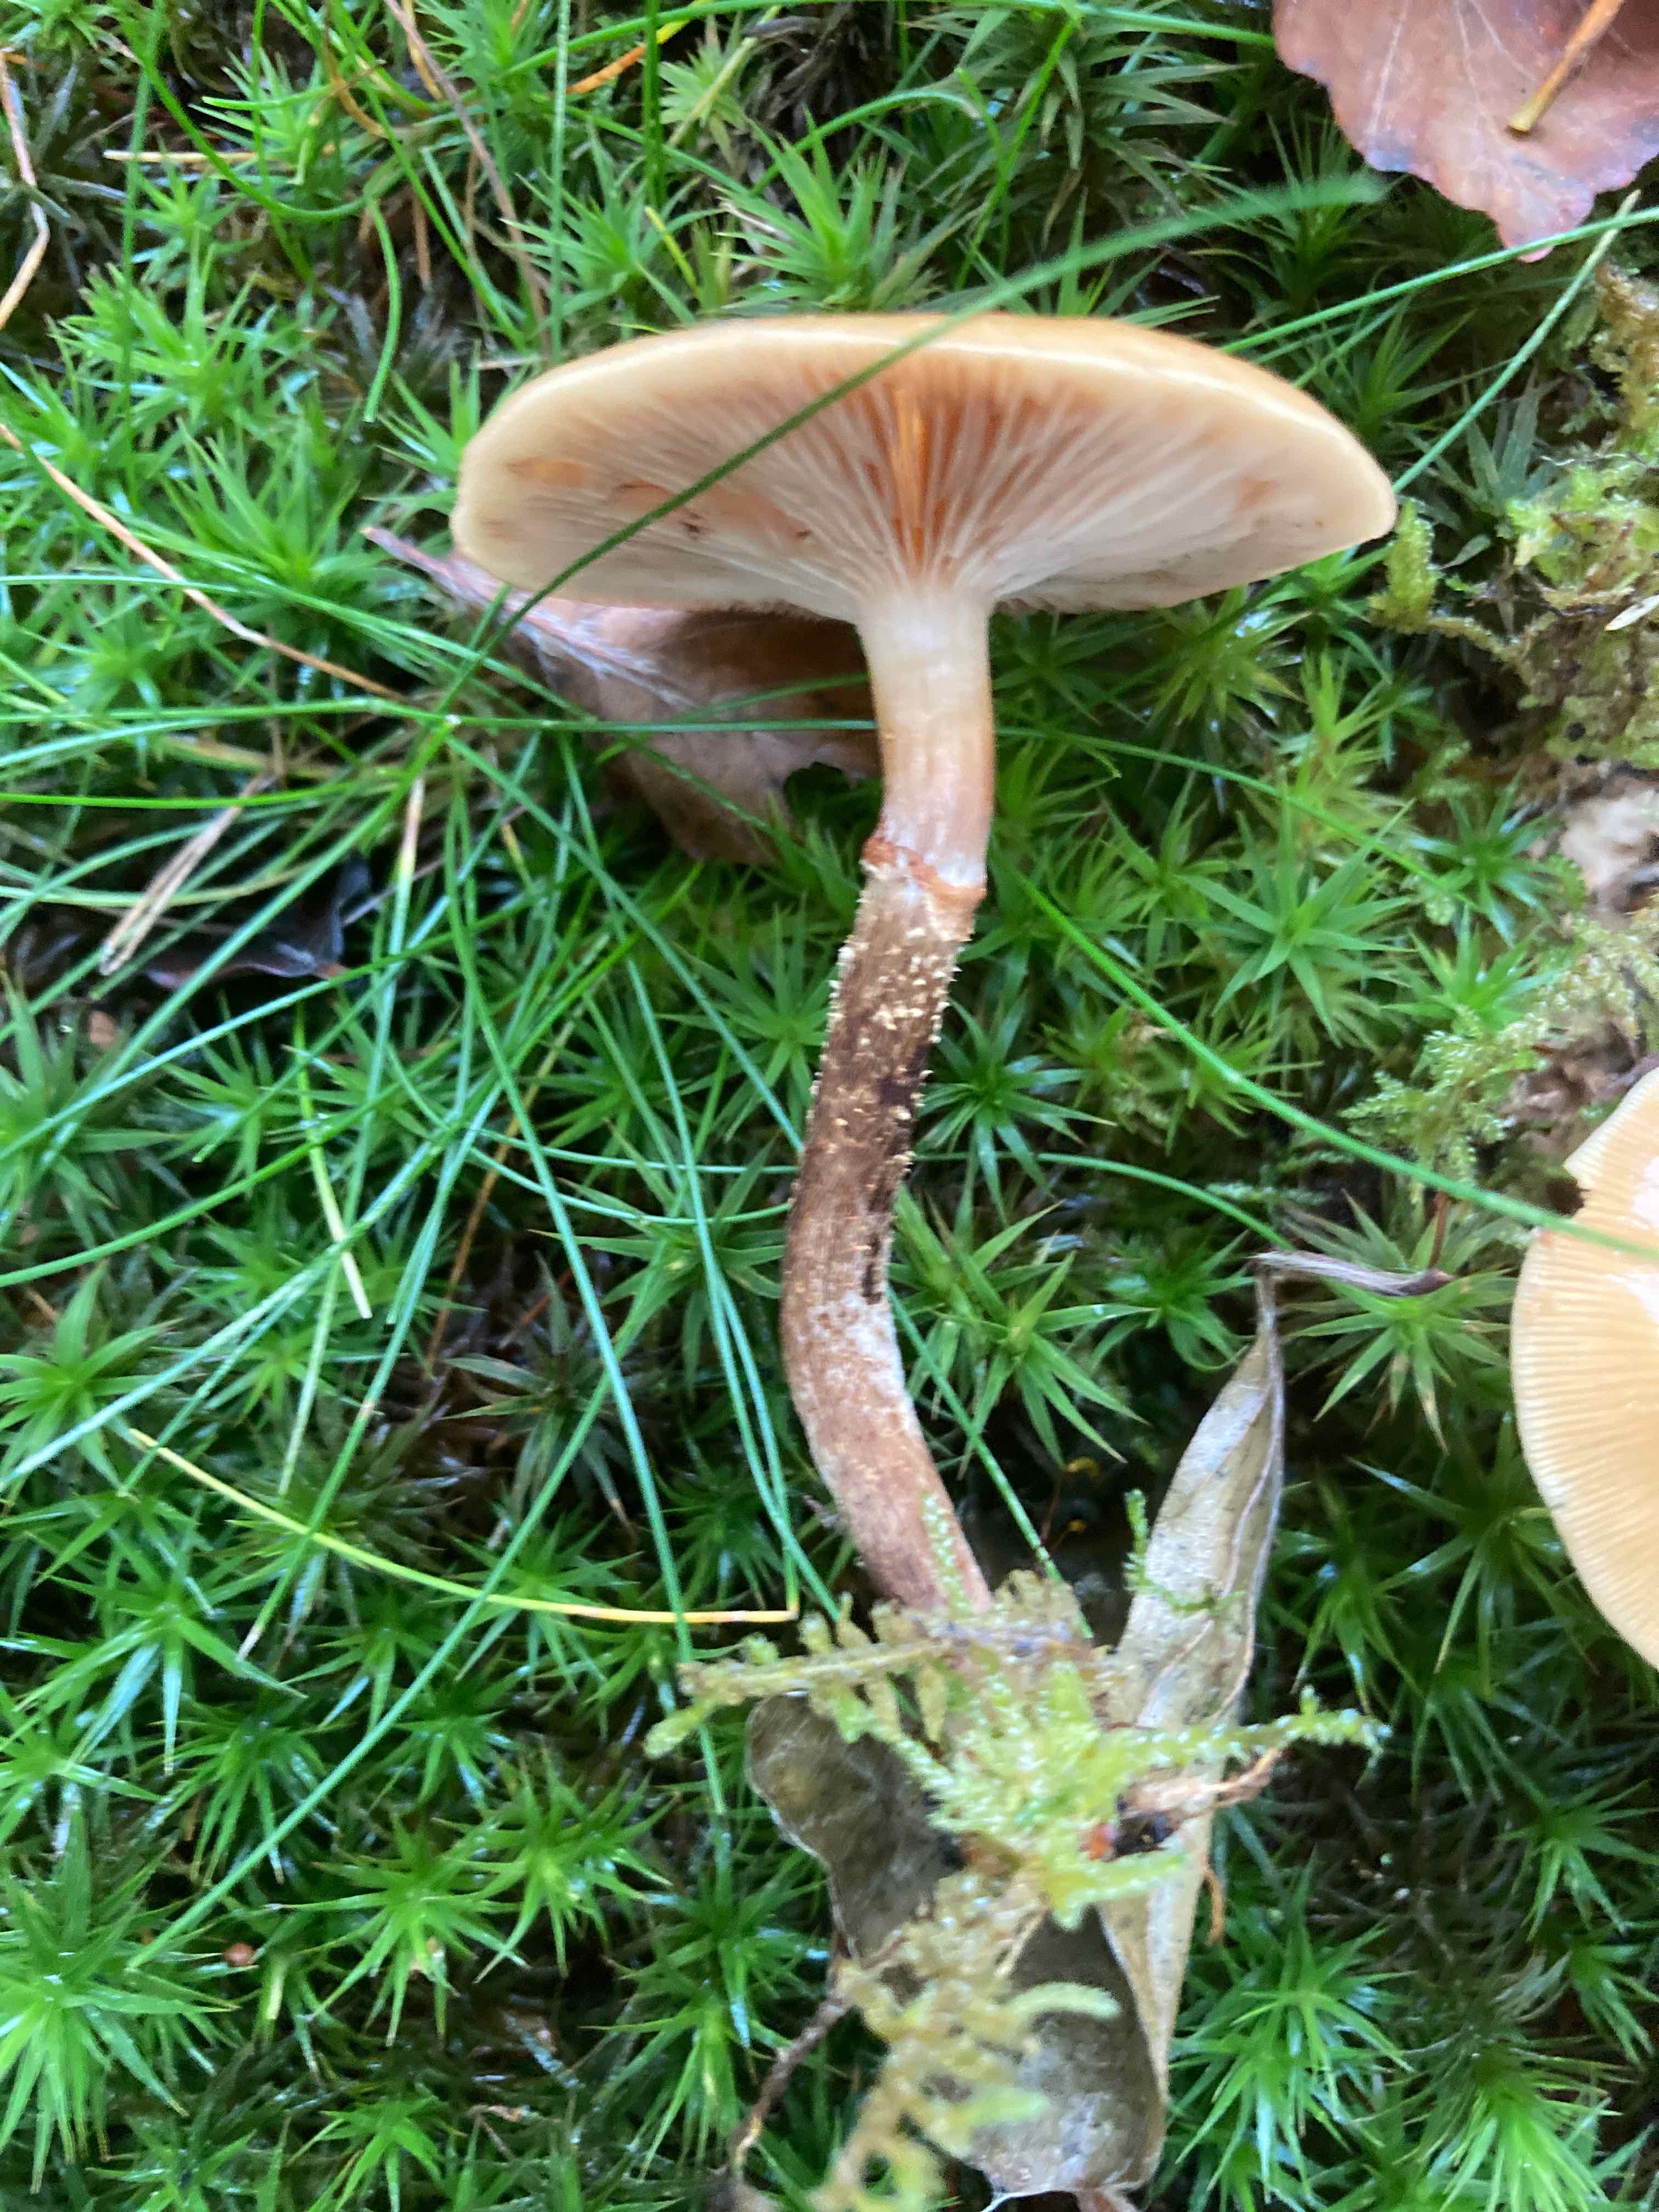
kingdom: Fungi
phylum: Basidiomycota
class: Agaricomycetes
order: Agaricales
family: Strophariaceae
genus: Kuehneromyces
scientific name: Kuehneromyces mutabilis
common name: foranderlig skælhat
